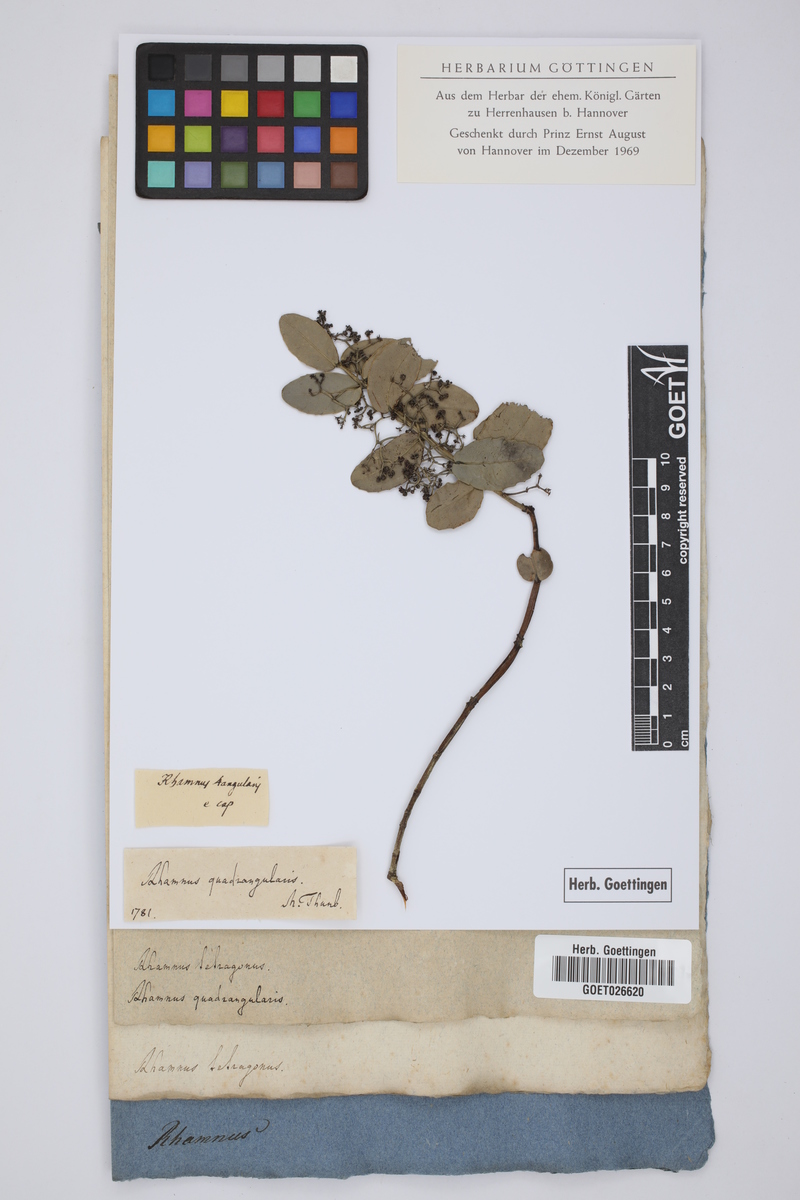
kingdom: Plantae
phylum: Tracheophyta
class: Magnoliopsida
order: Celastrales
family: Celastraceae
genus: Lauridia
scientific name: Lauridia tetragona
